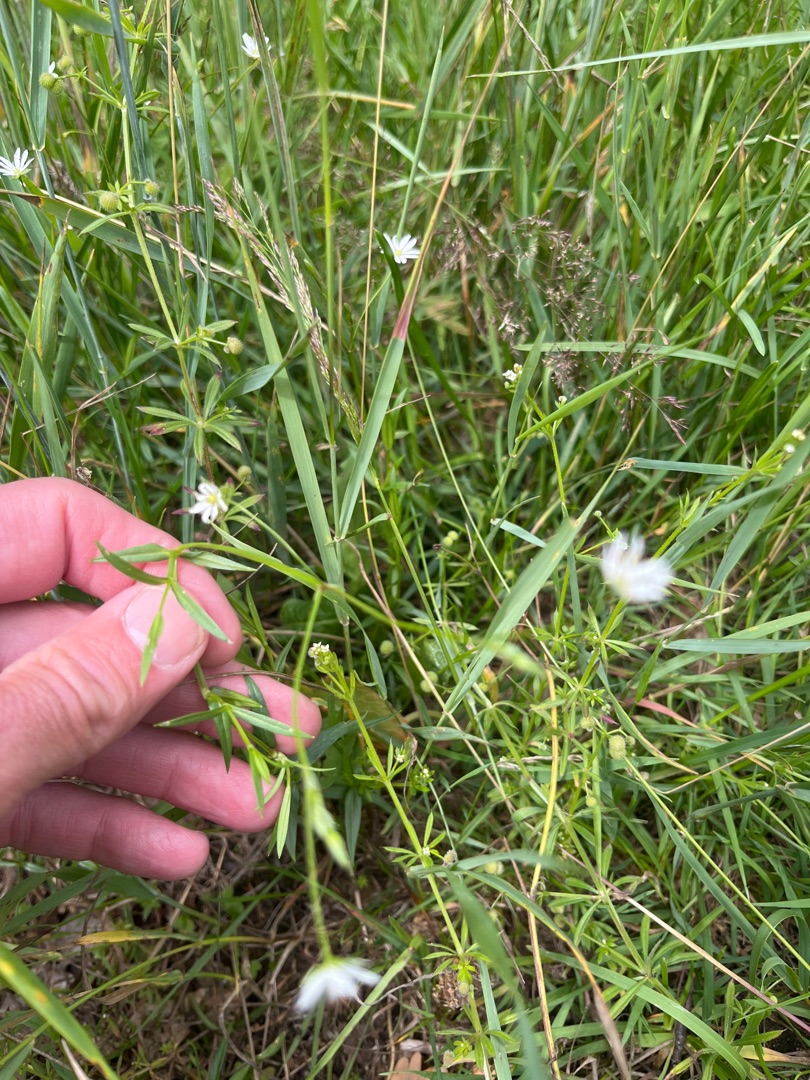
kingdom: Plantae
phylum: Tracheophyta
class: Magnoliopsida
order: Caryophyllales
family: Caryophyllaceae
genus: Stellaria
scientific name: Stellaria graminea
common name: Græsbladet fladstjerne
